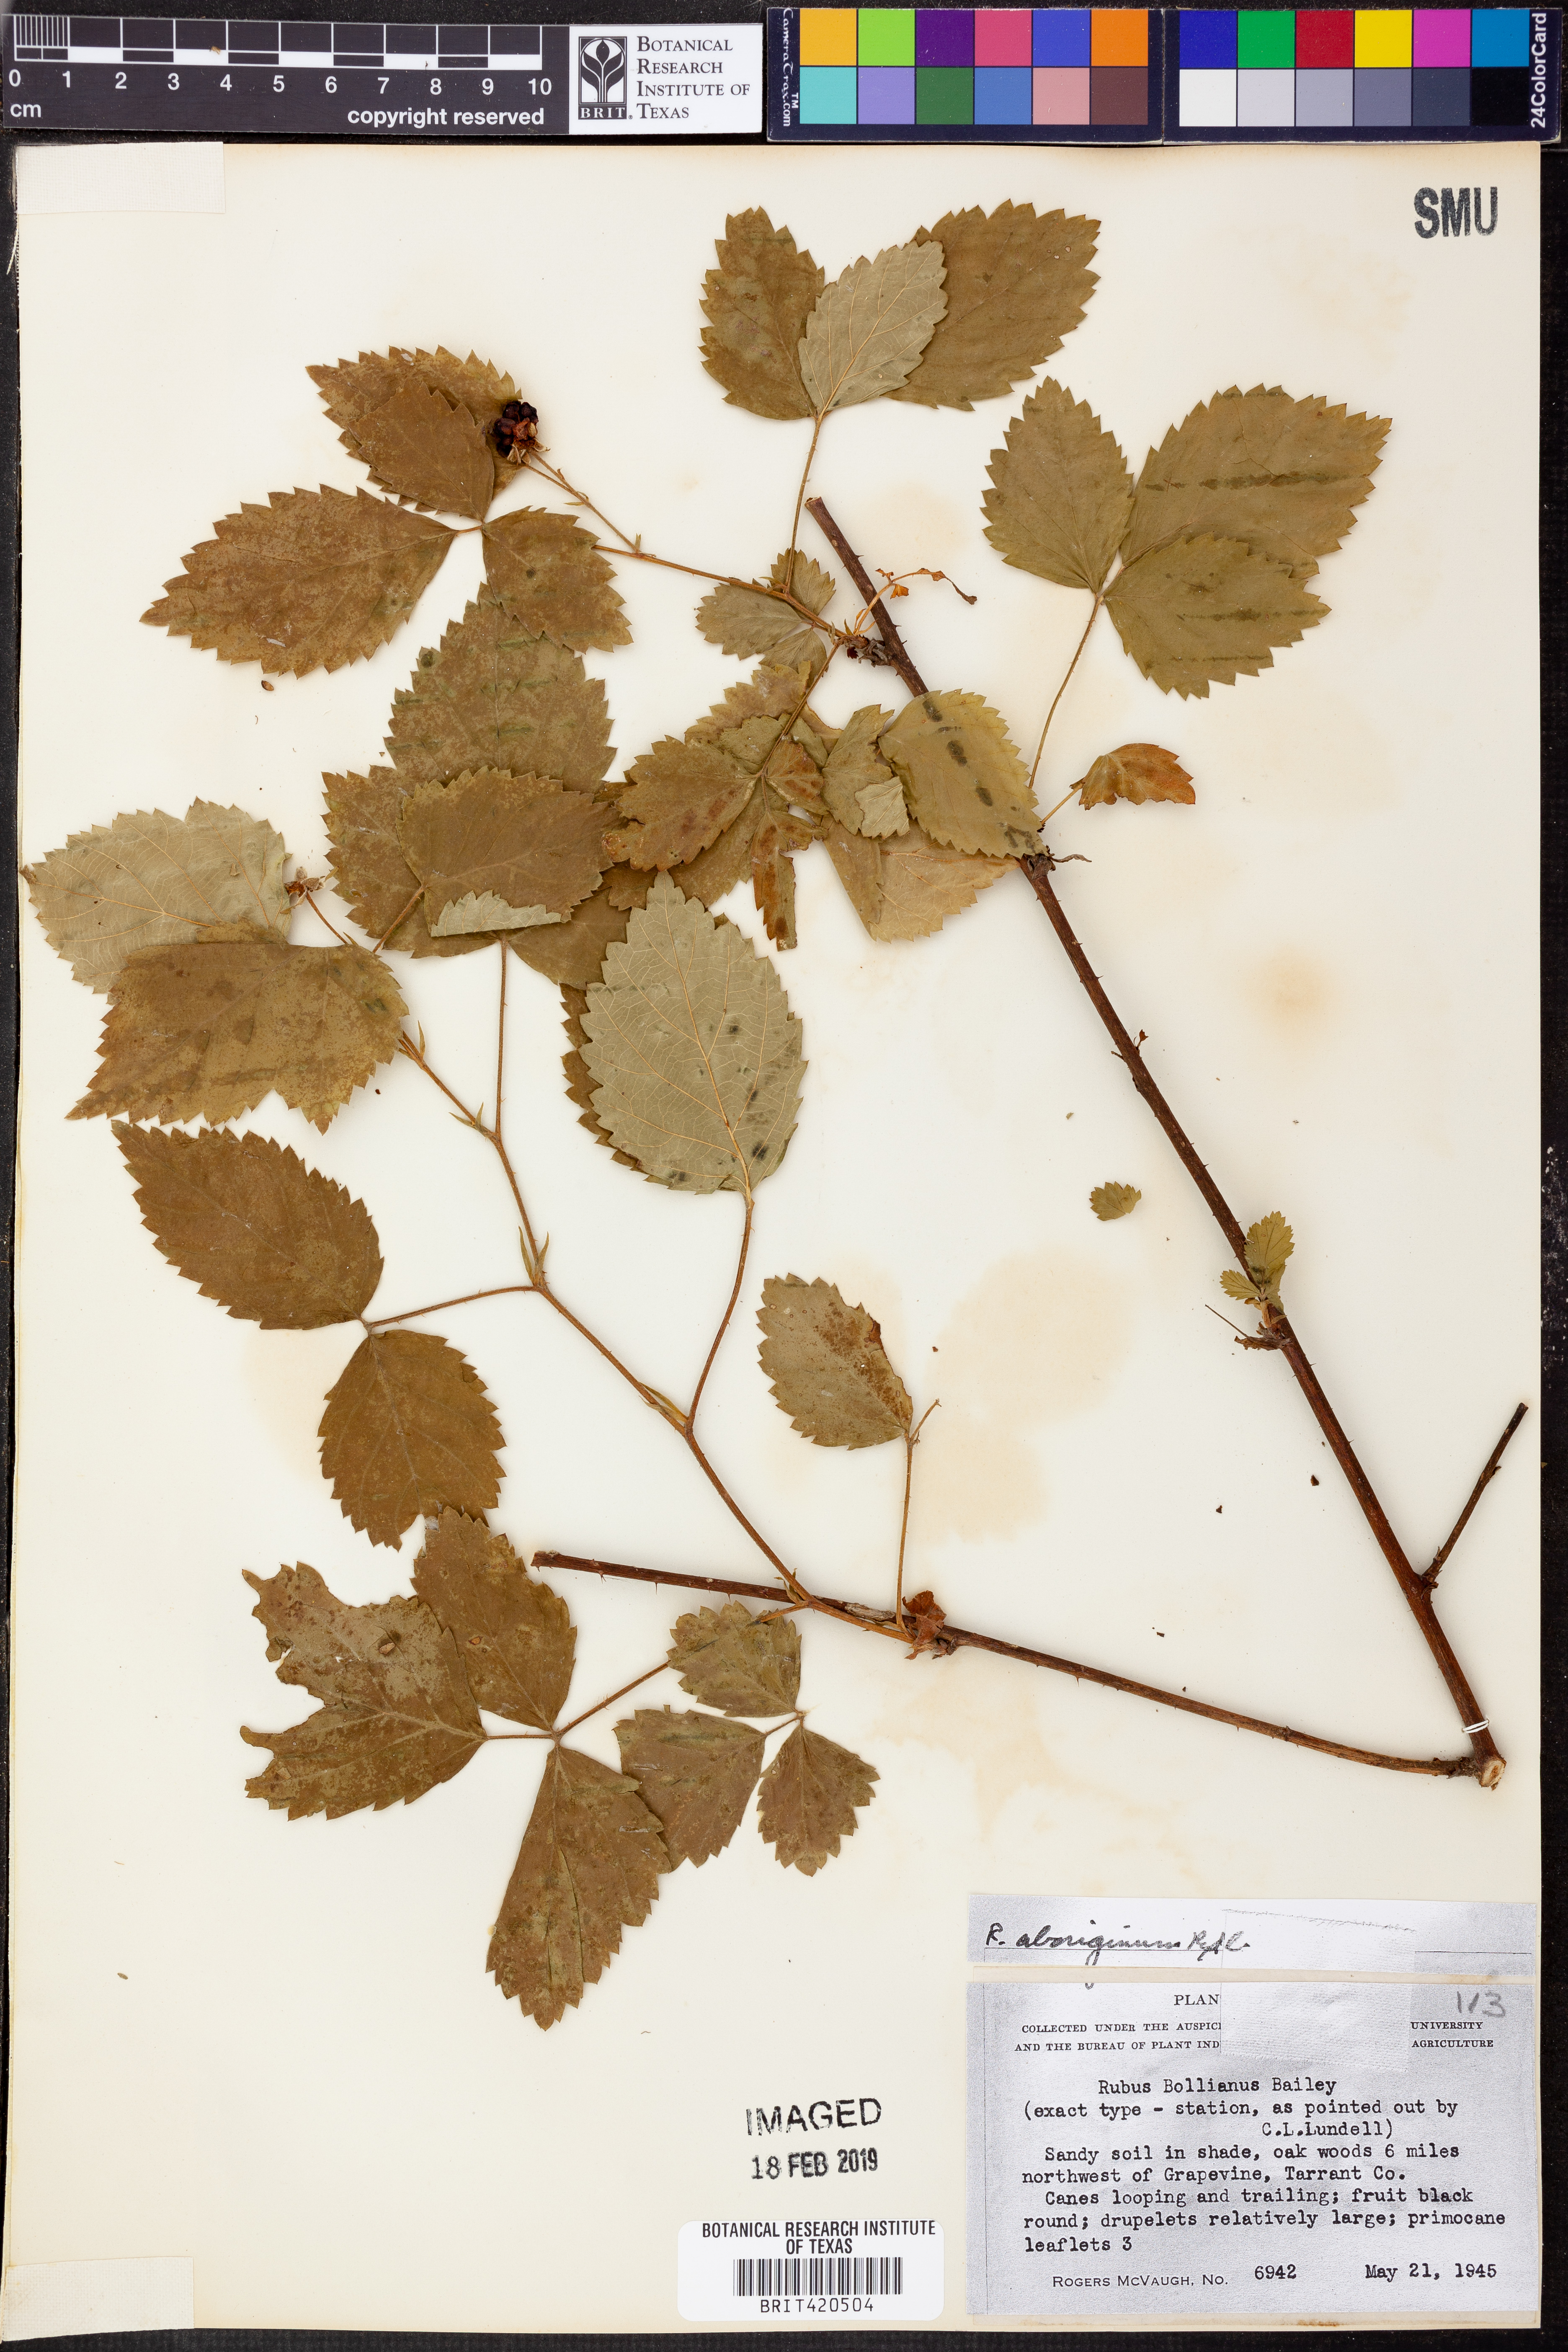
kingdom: Plantae
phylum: Tracheophyta
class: Magnoliopsida
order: Rosales
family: Rosaceae
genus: Rubus
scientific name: Rubus aboriginum
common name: Mayes dewberry
